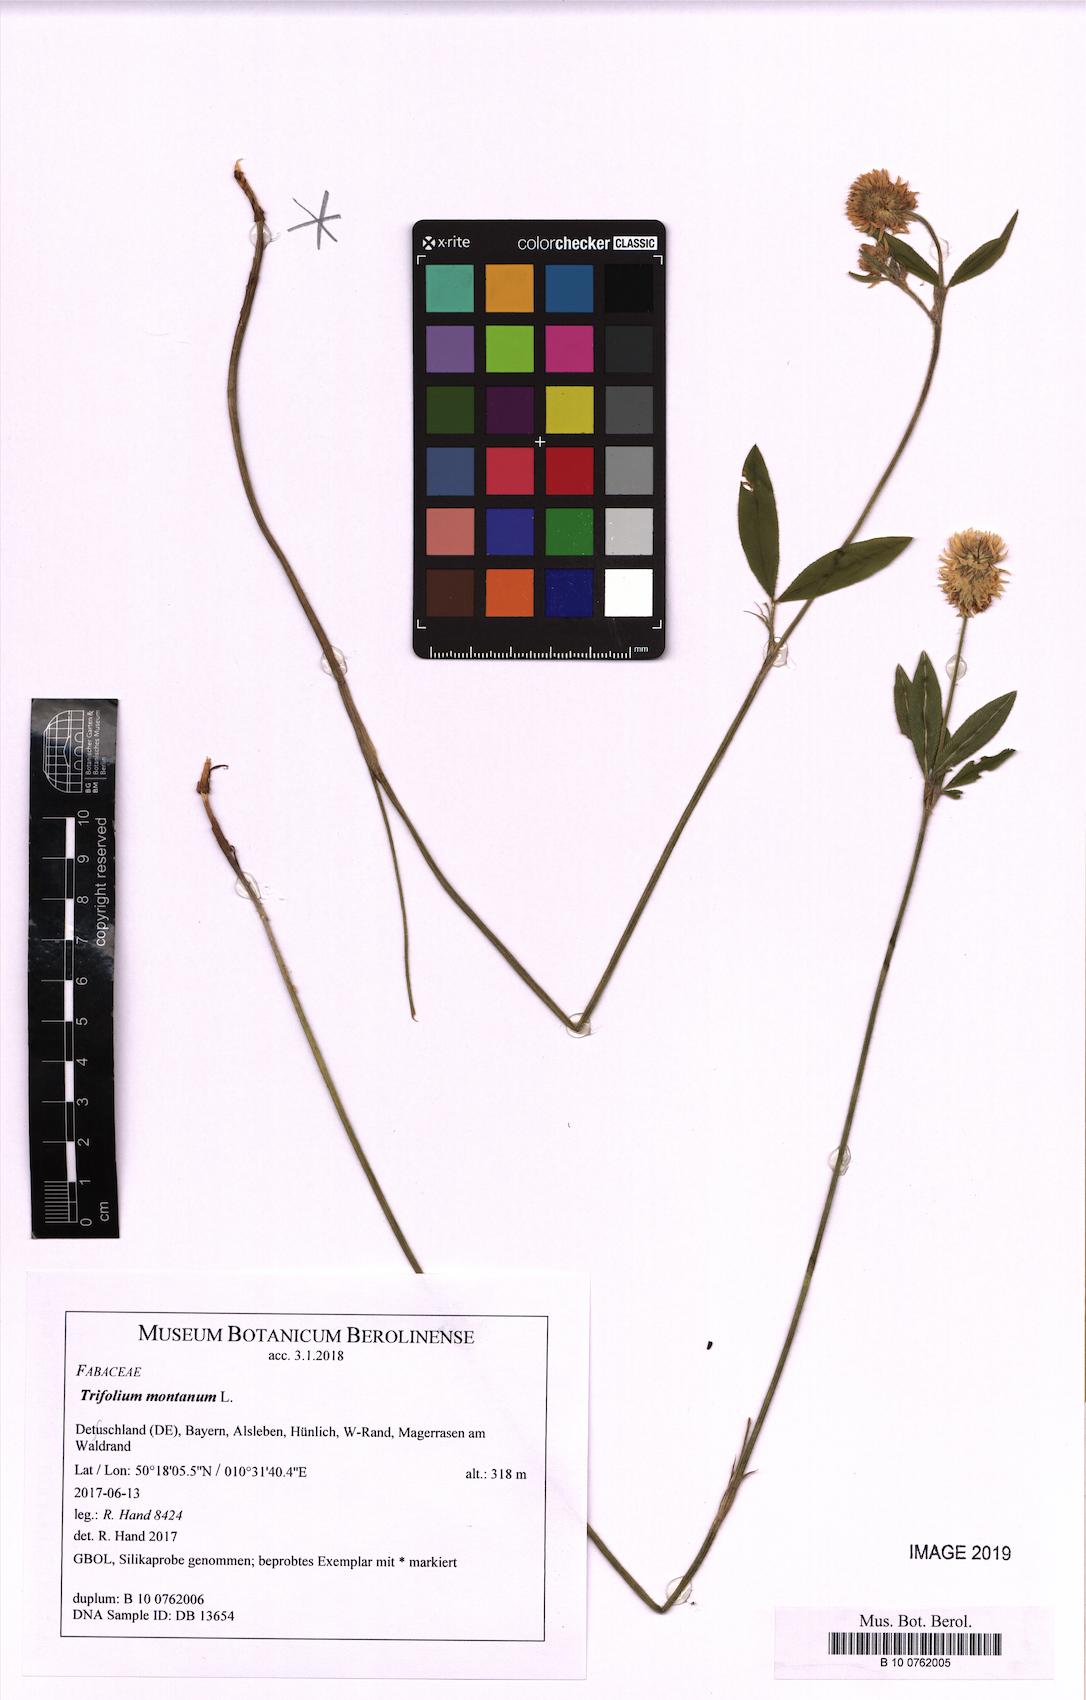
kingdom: Plantae
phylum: Tracheophyta
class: Magnoliopsida
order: Fabales
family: Fabaceae
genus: Trifolium
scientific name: Trifolium montanum
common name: Mountain clover
